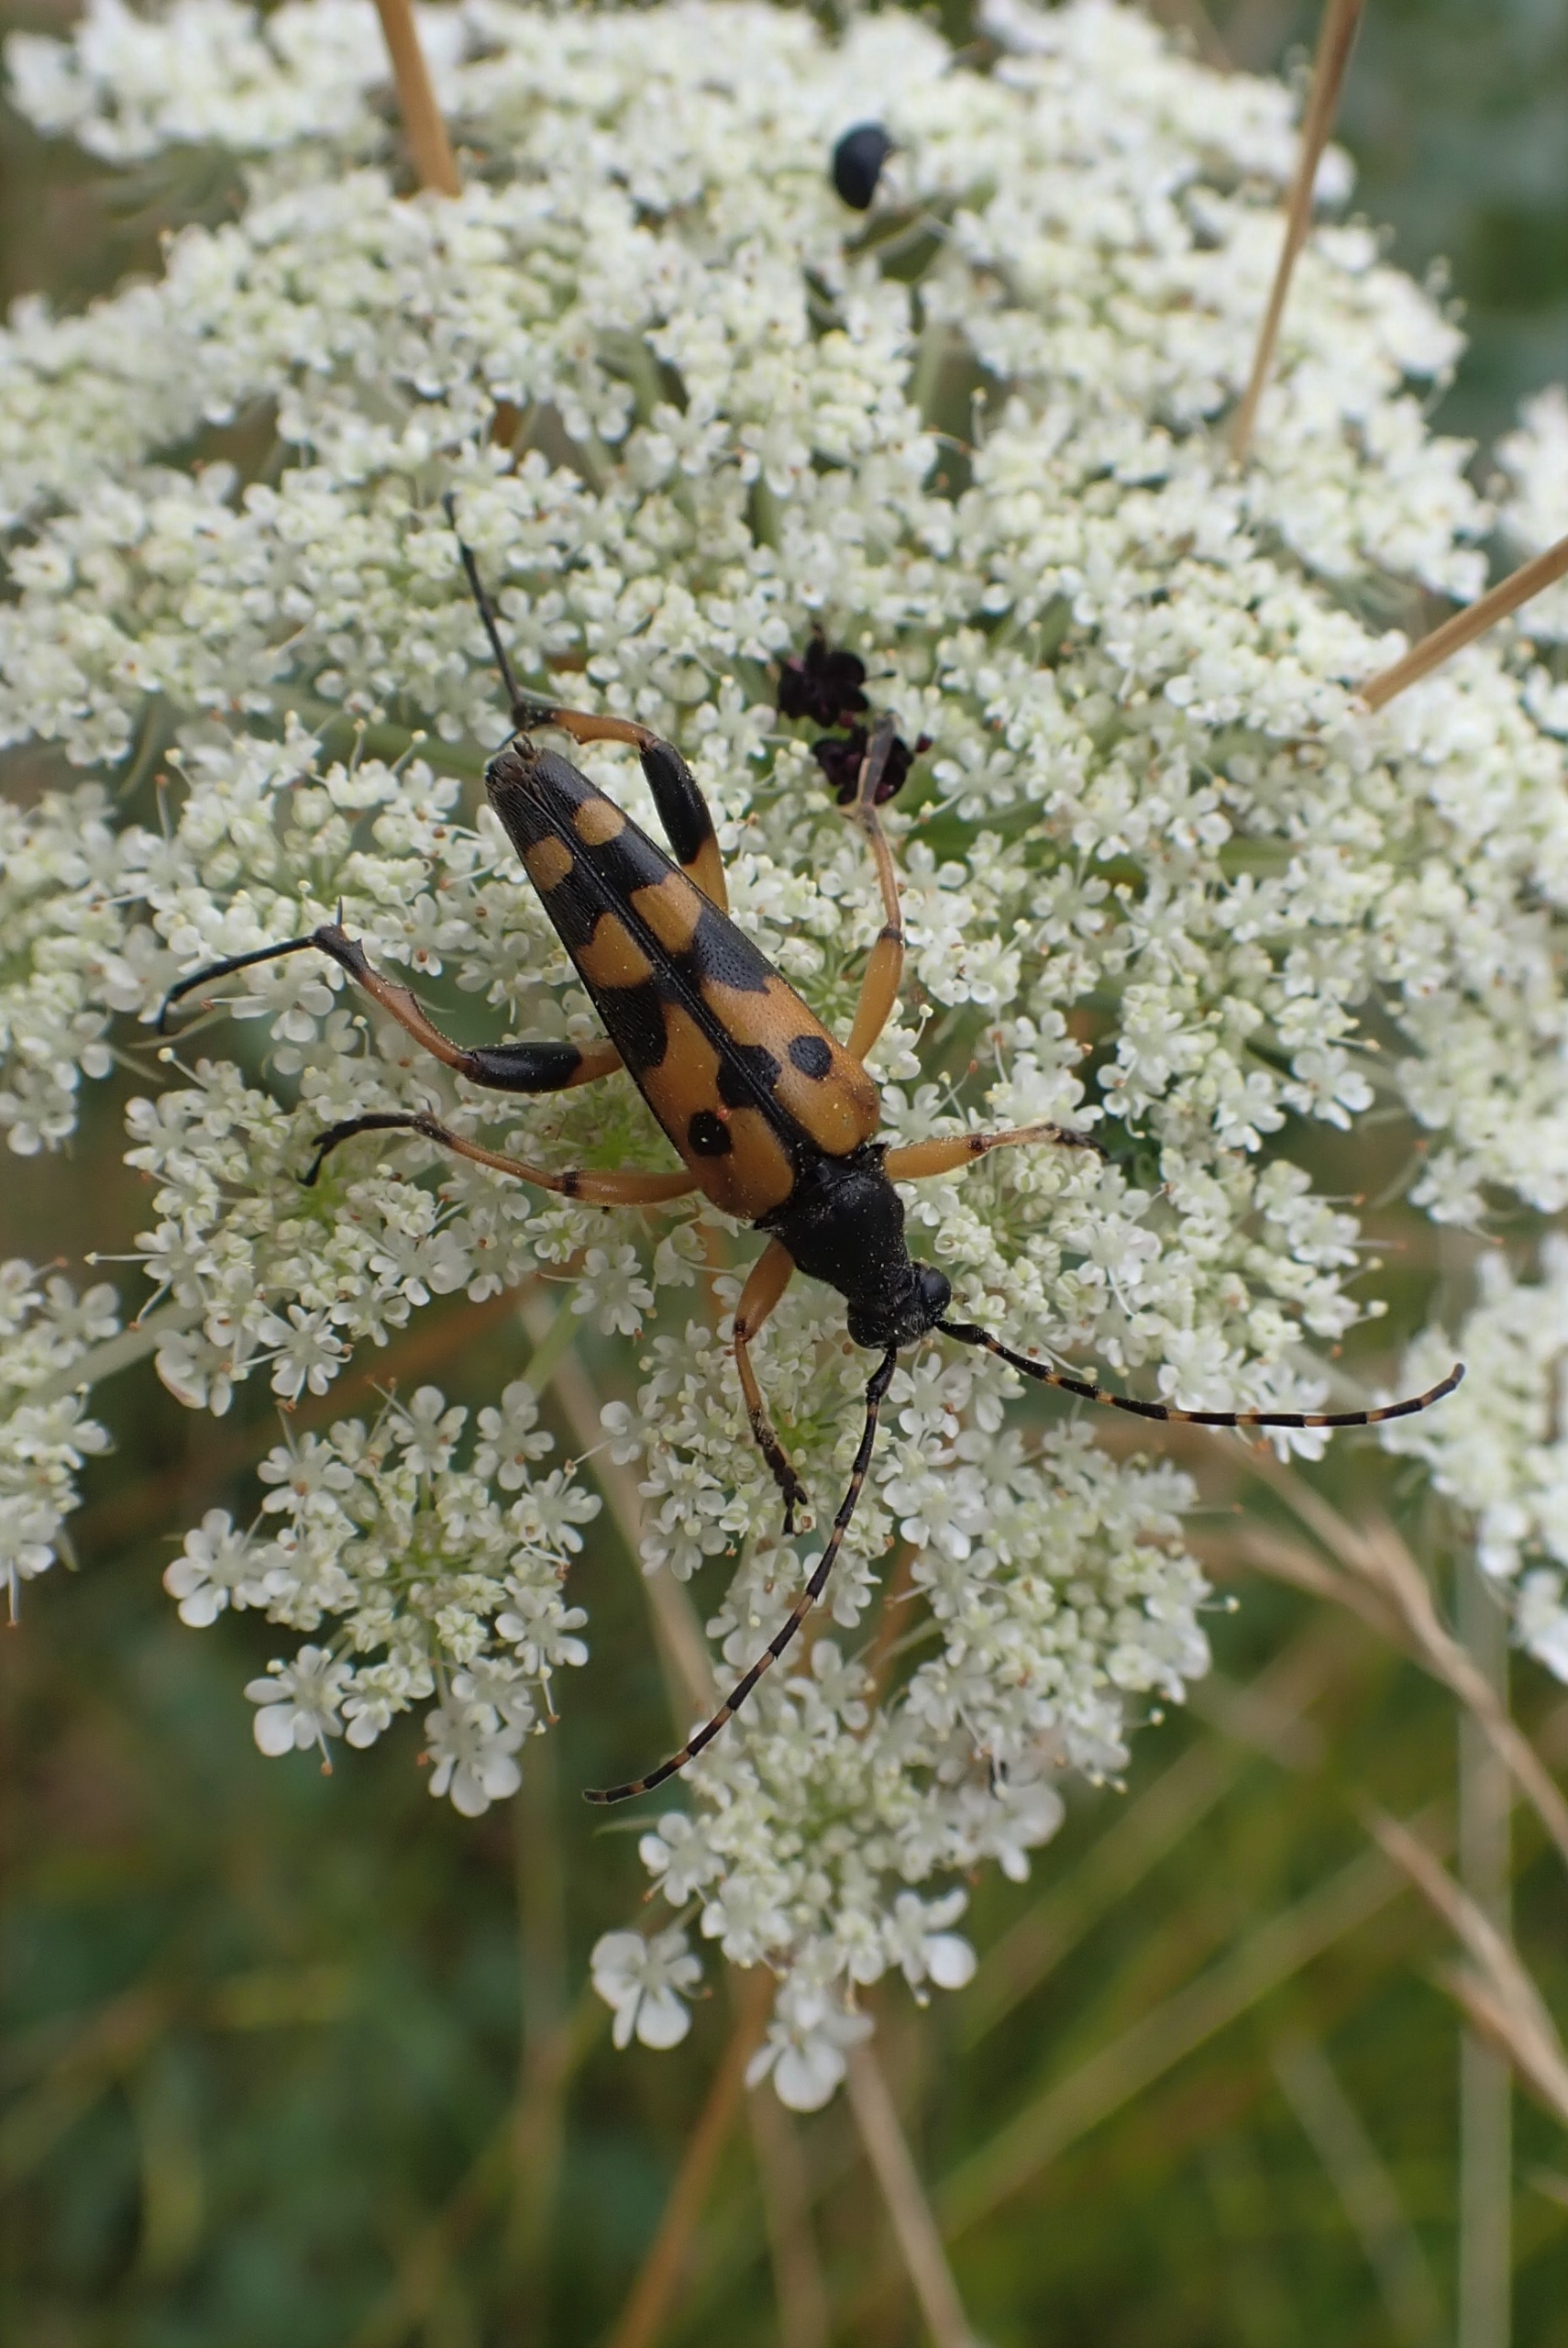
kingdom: Animalia
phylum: Arthropoda
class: Insecta
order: Coleoptera
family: Cerambycidae
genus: Rutpela
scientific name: Rutpela maculata
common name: Sydlig blomsterbuk
